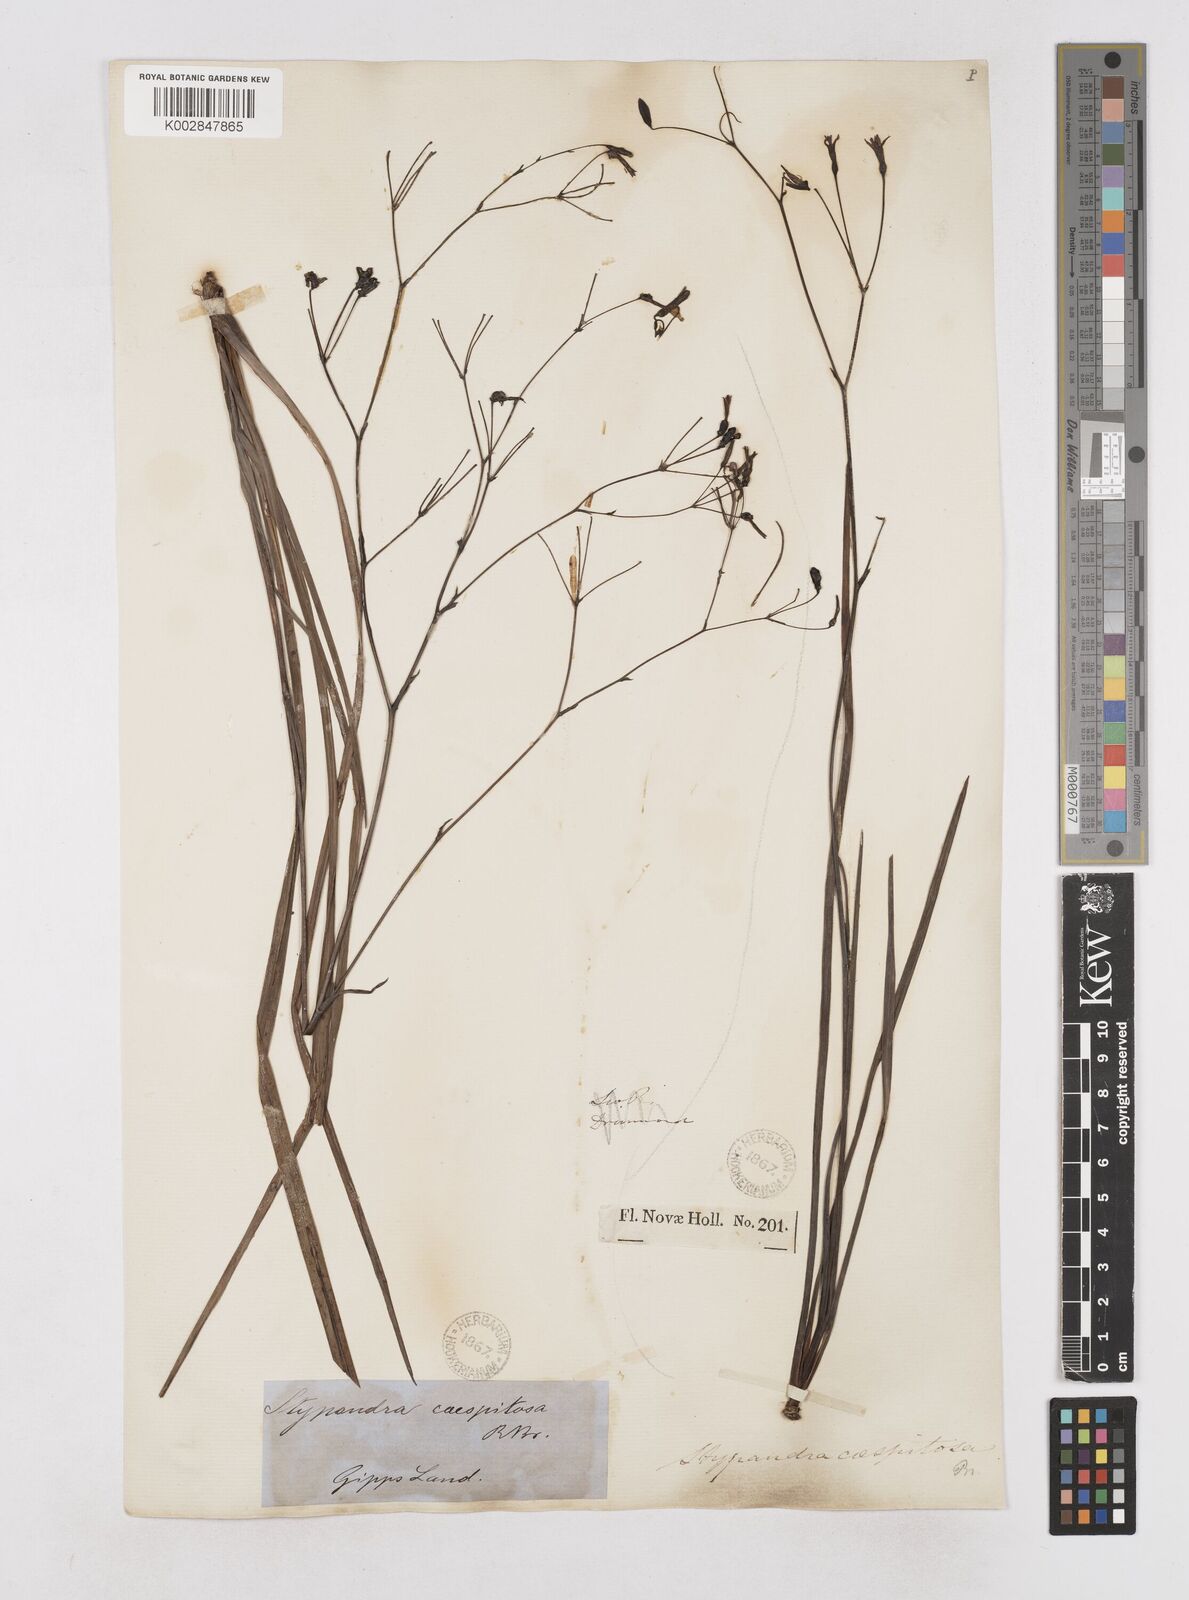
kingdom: Plantae
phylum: Tracheophyta
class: Liliopsida
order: Asparagales
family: Asphodelaceae
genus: Thelionema
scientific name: Thelionema caespitosum
